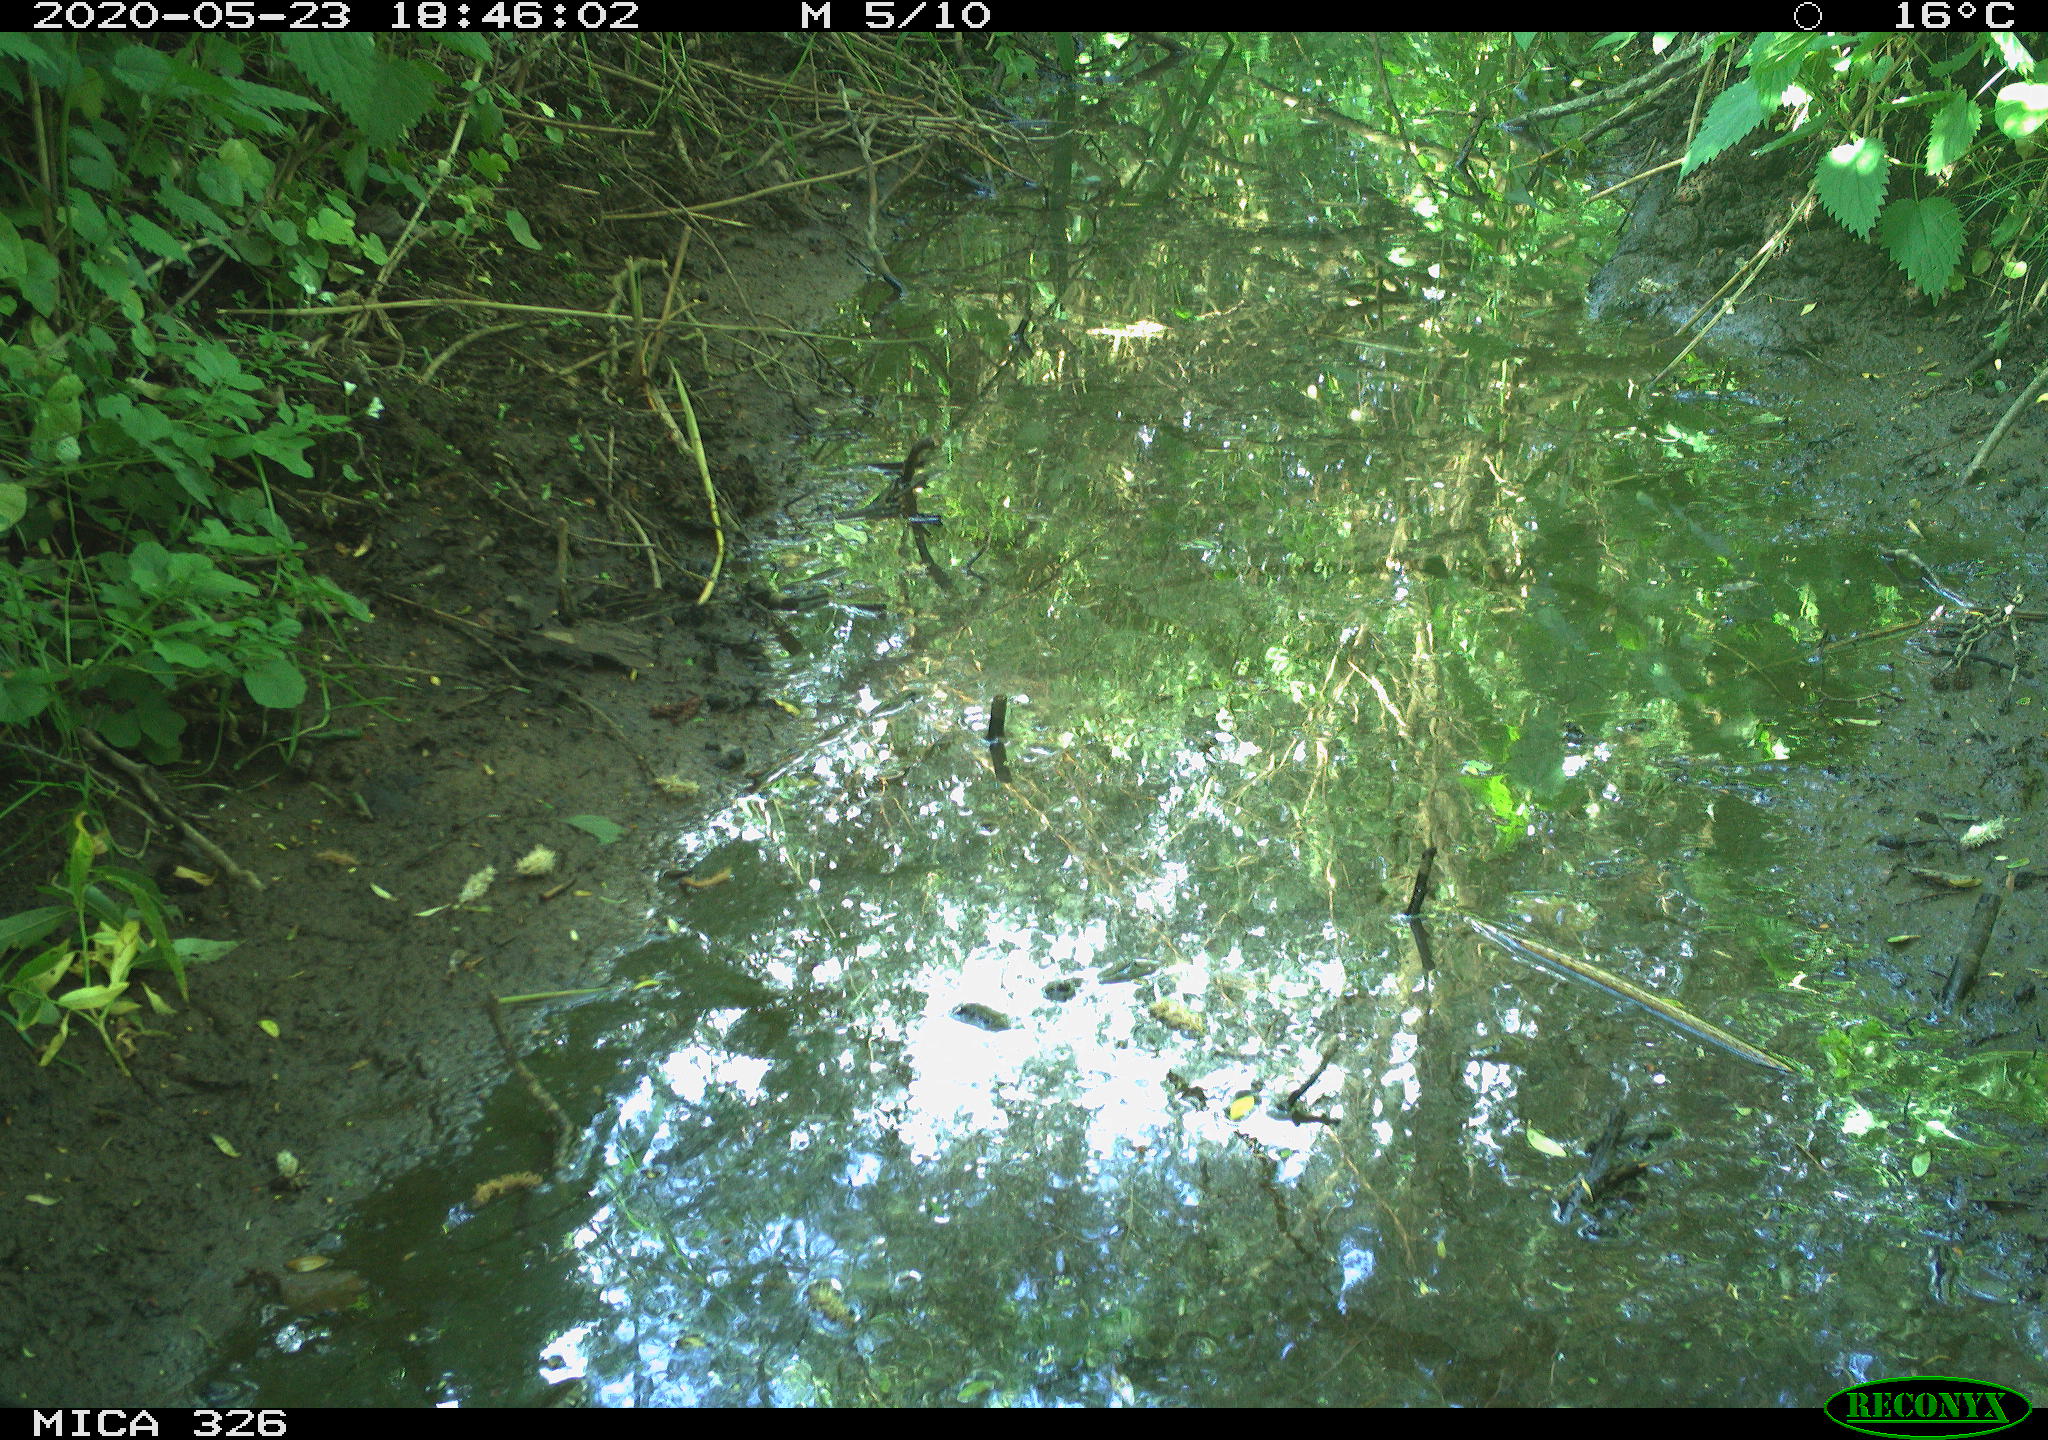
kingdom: Animalia
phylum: Chordata
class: Aves
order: Passeriformes
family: Turdidae
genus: Turdus
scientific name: Turdus philomelos
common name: Song thrush
